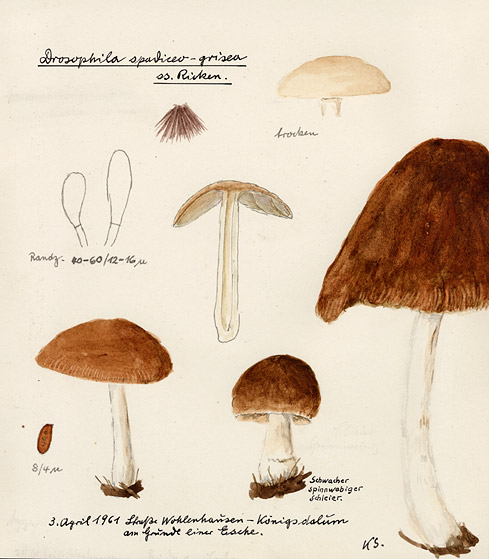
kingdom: Fungi
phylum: Basidiomycota
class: Agaricomycetes
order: Agaricales
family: Psathyrellaceae
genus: Psathyrella
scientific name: Psathyrella spadiceogrisea
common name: Spring brittlestem
